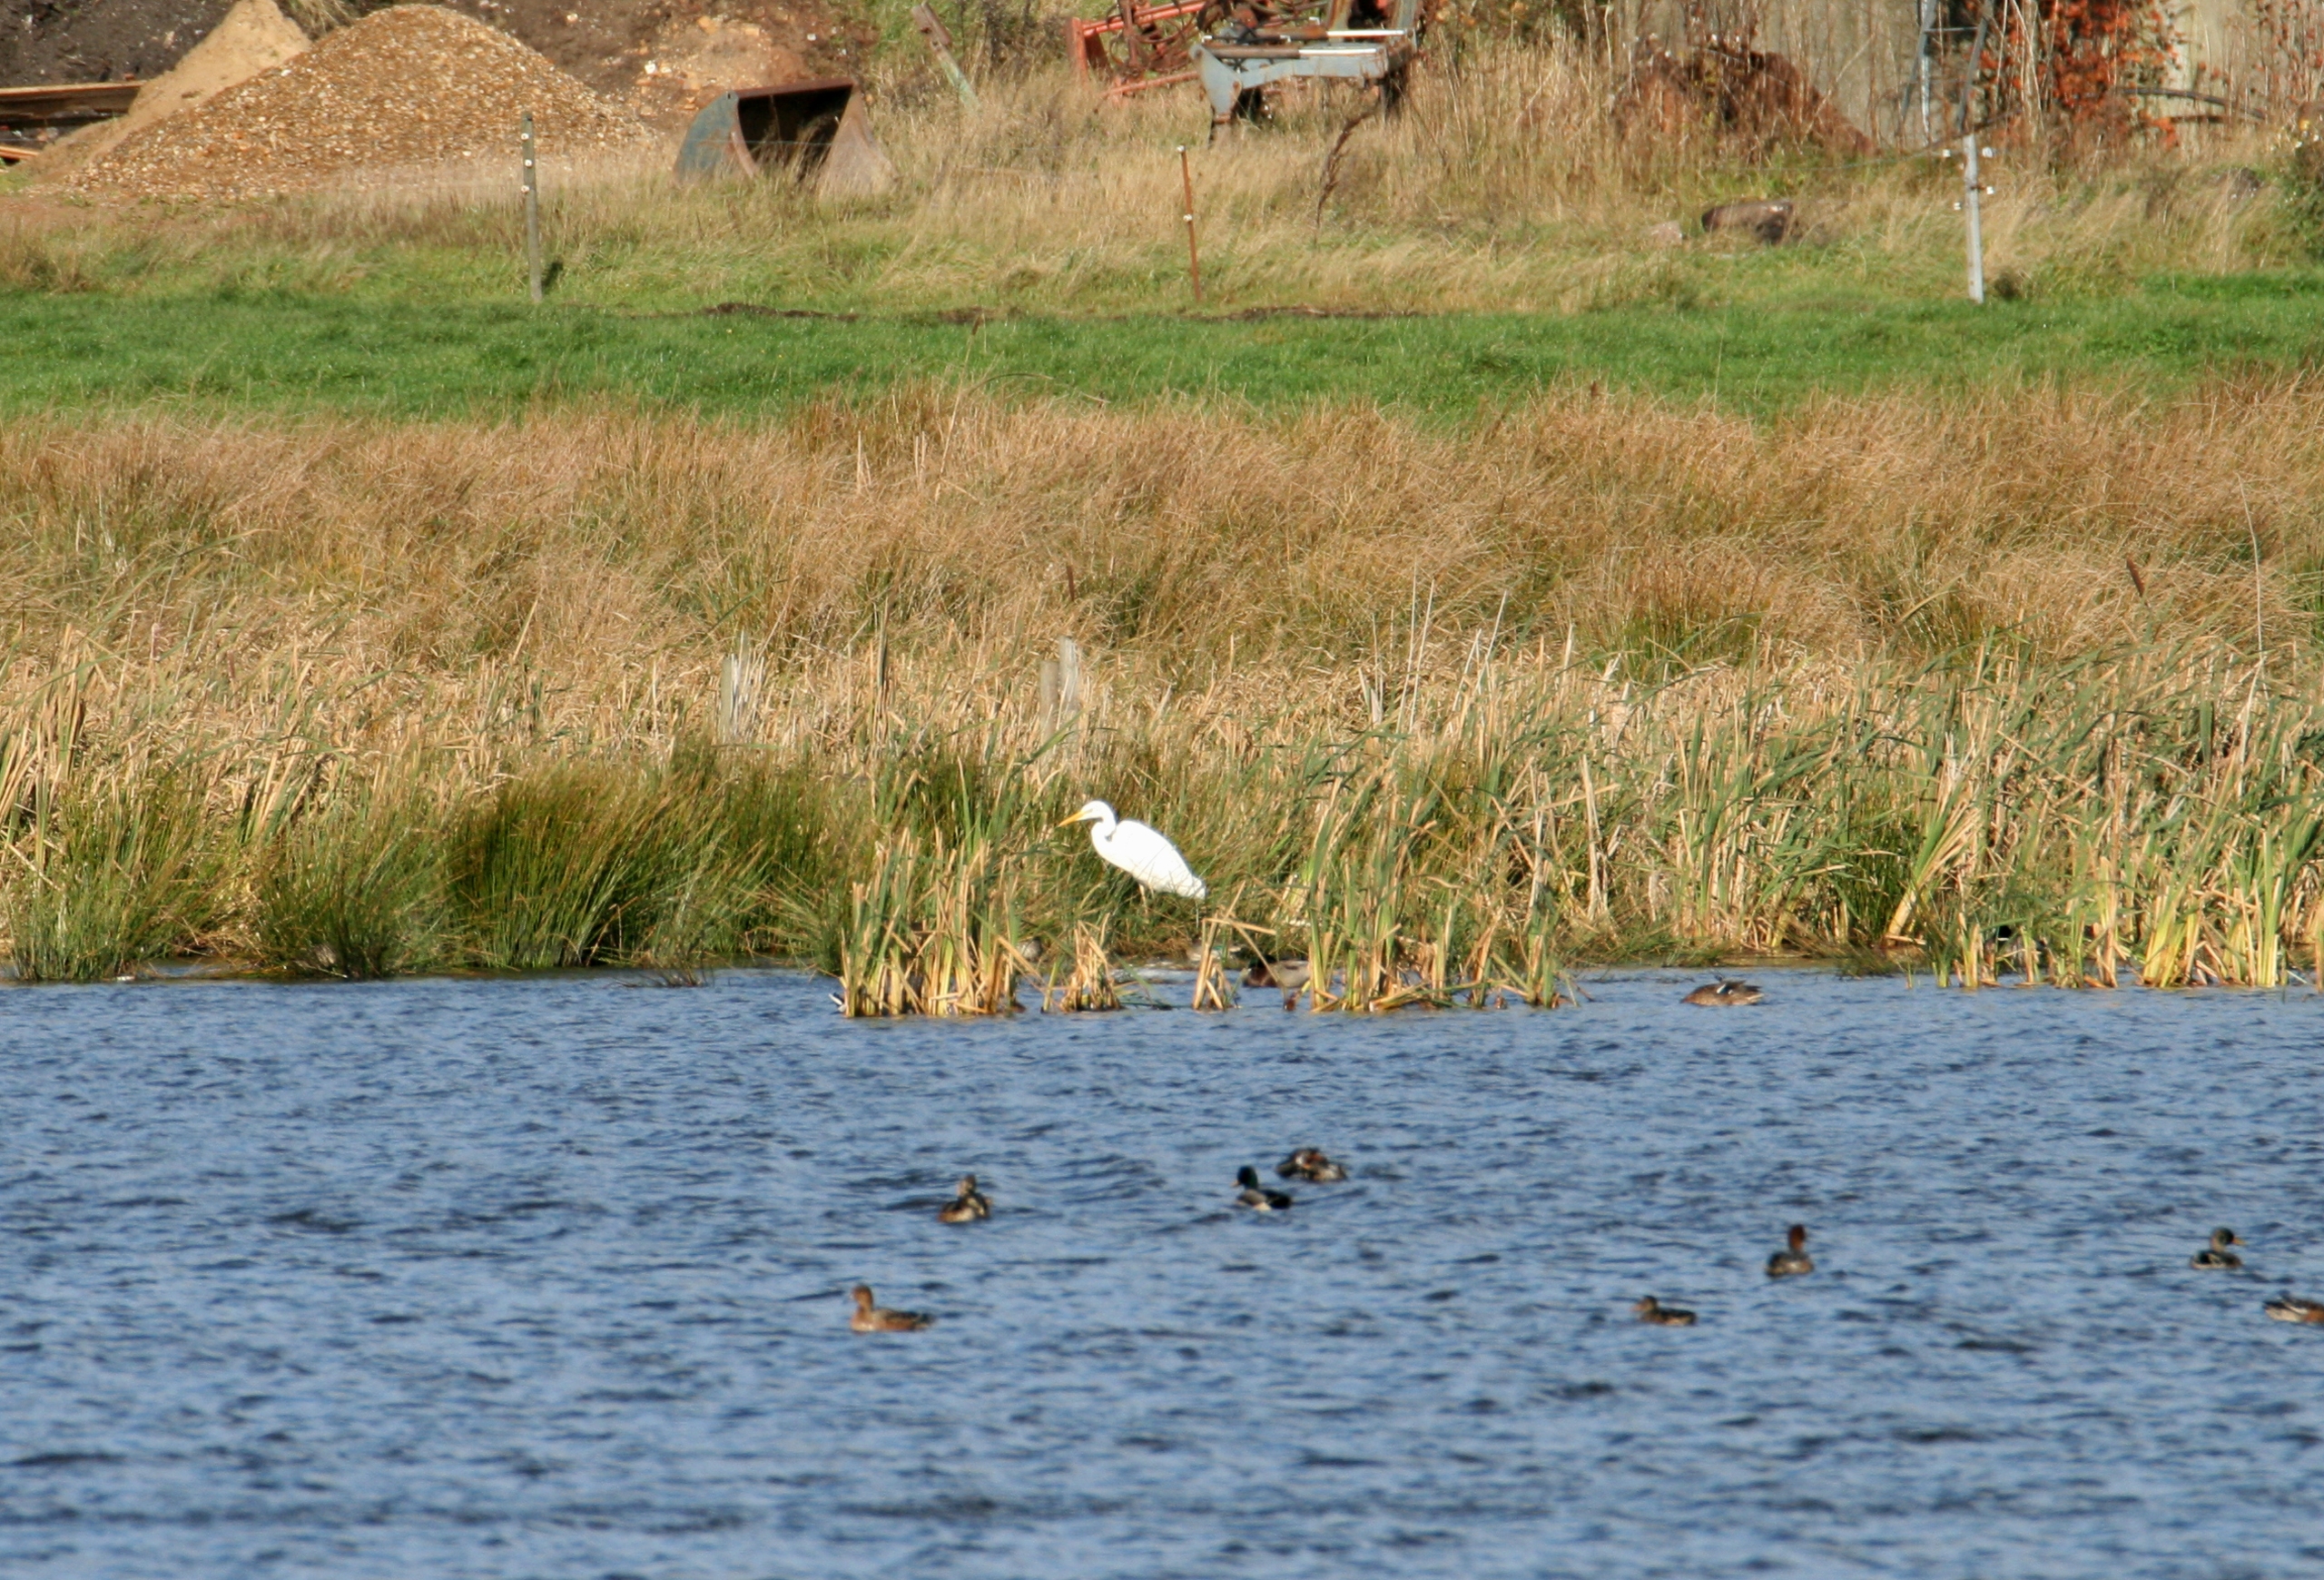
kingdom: Animalia
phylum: Chordata
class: Aves
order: Pelecaniformes
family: Ardeidae
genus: Ardea
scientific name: Ardea alba
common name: Sølvhejre
